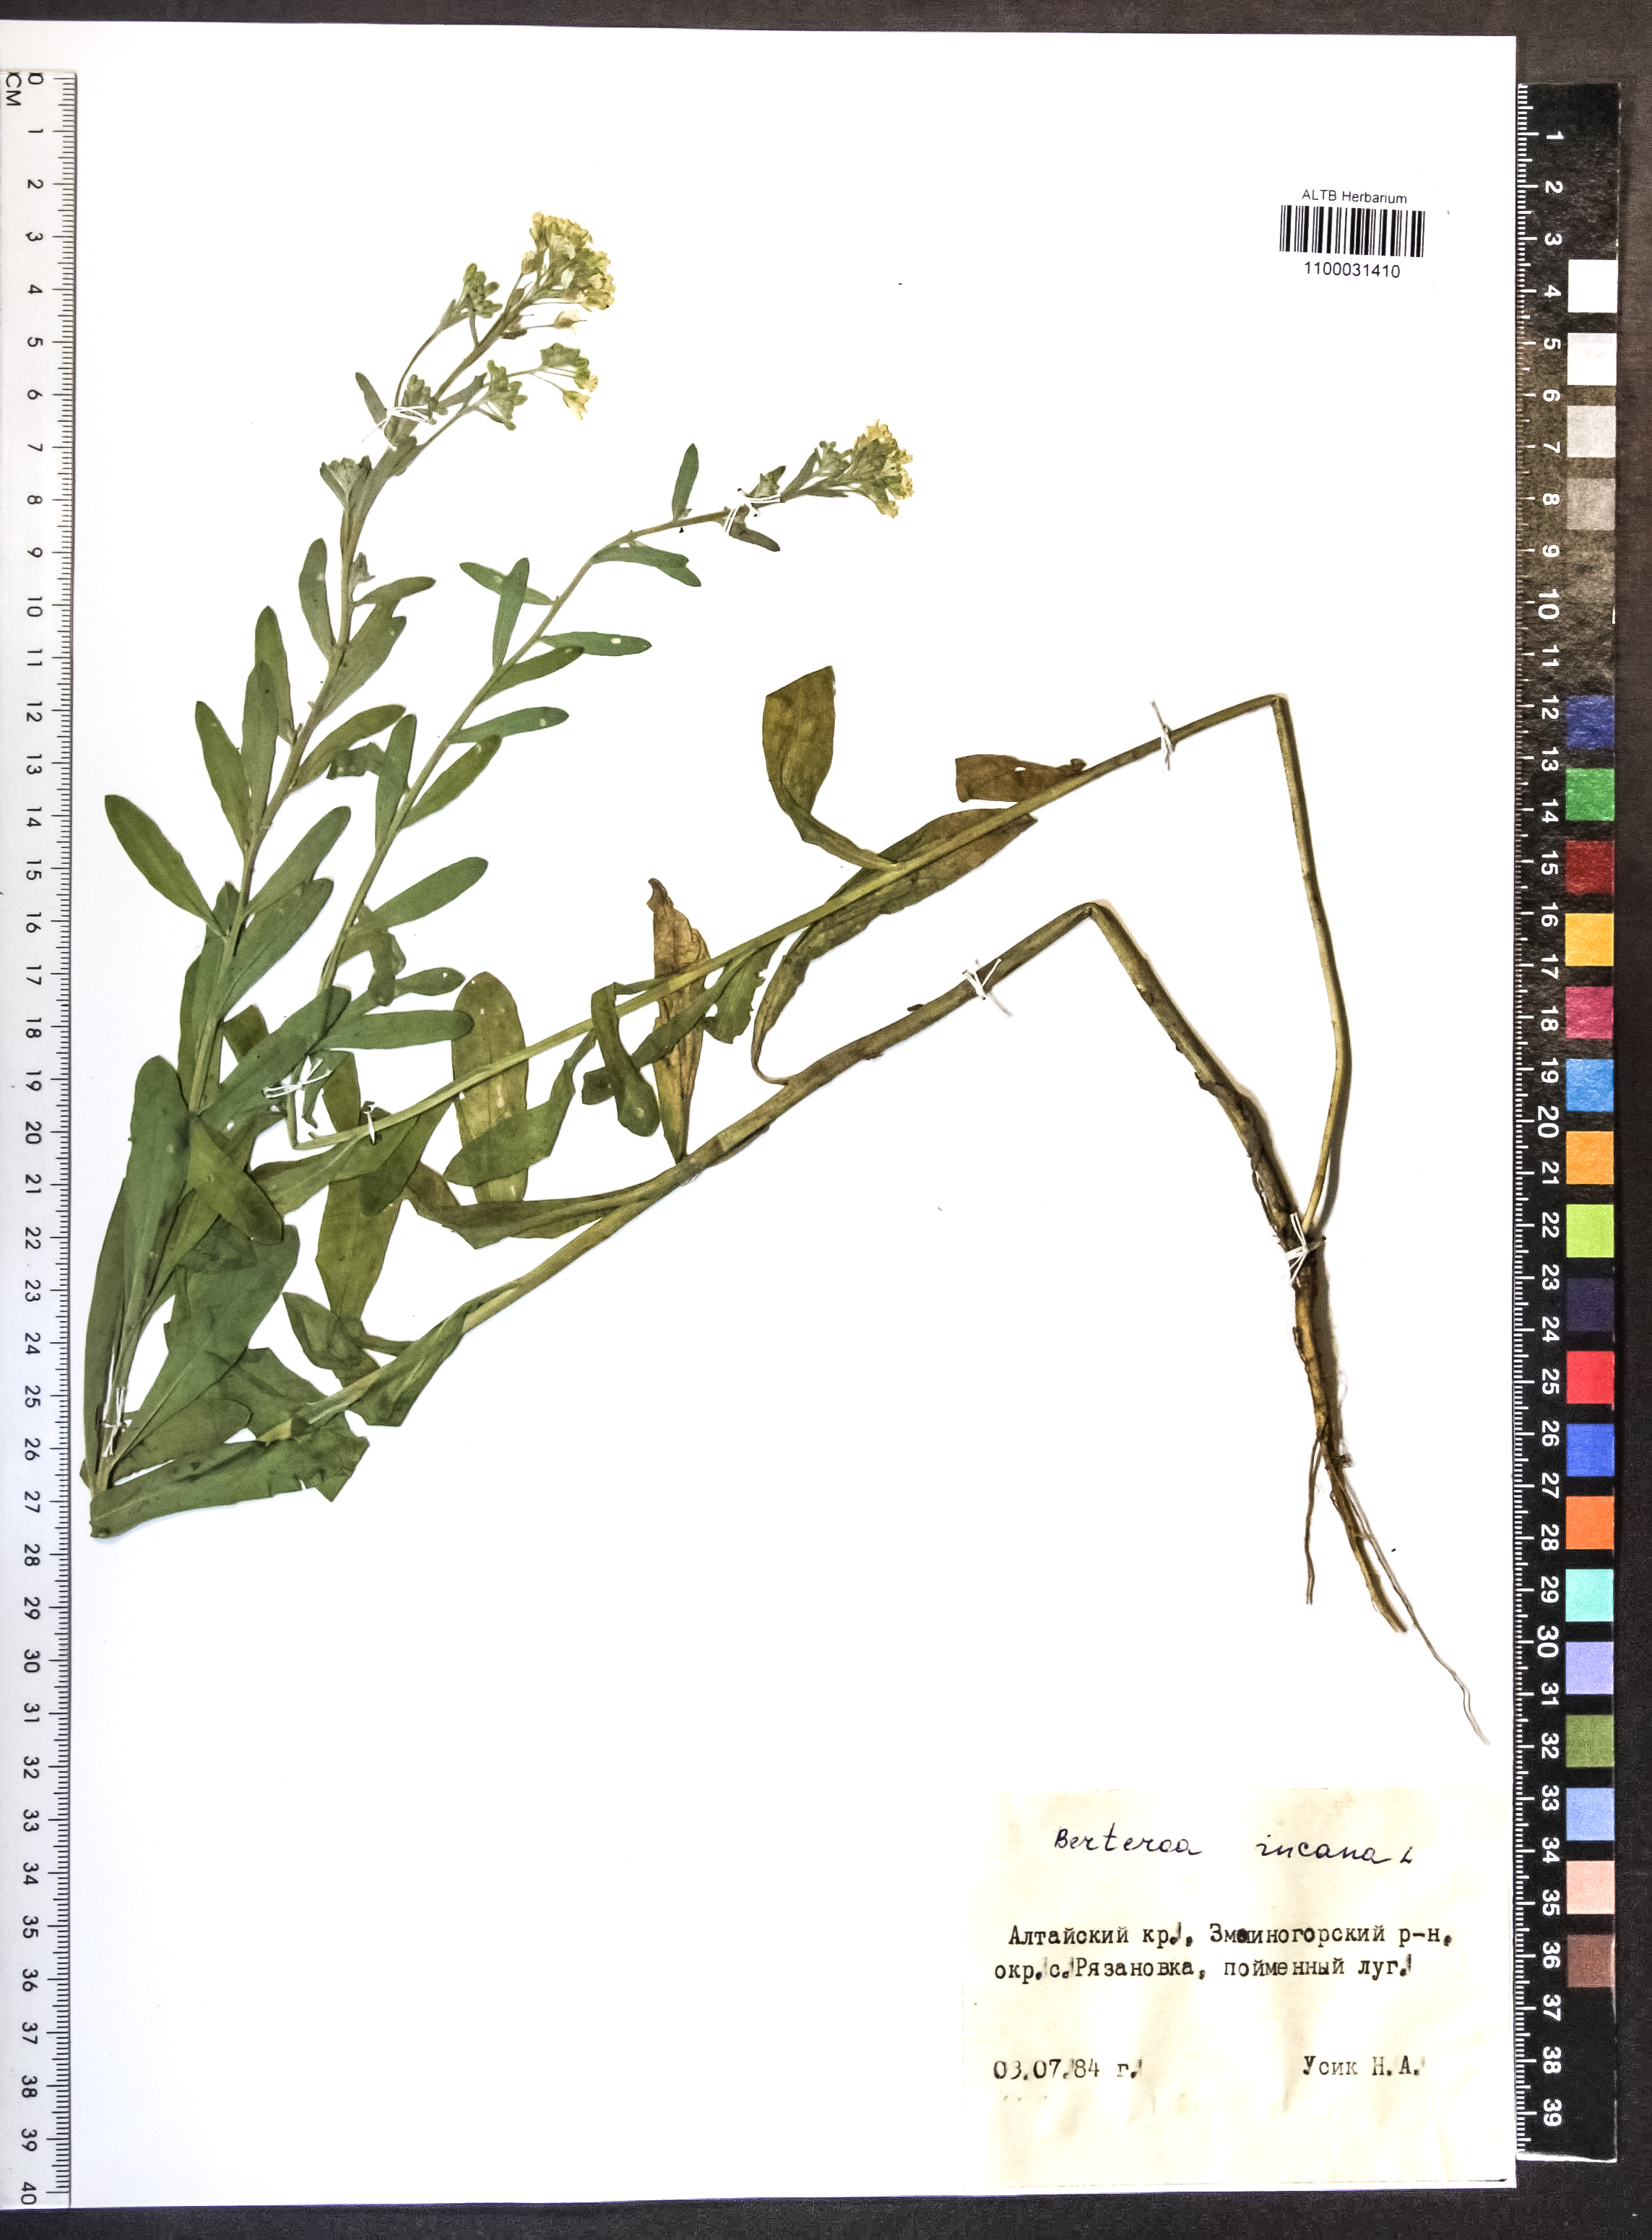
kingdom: Plantae
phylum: Tracheophyta
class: Magnoliopsida
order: Brassicales
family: Brassicaceae
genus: Berteroa
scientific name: Berteroa incana
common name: Hoary alison
